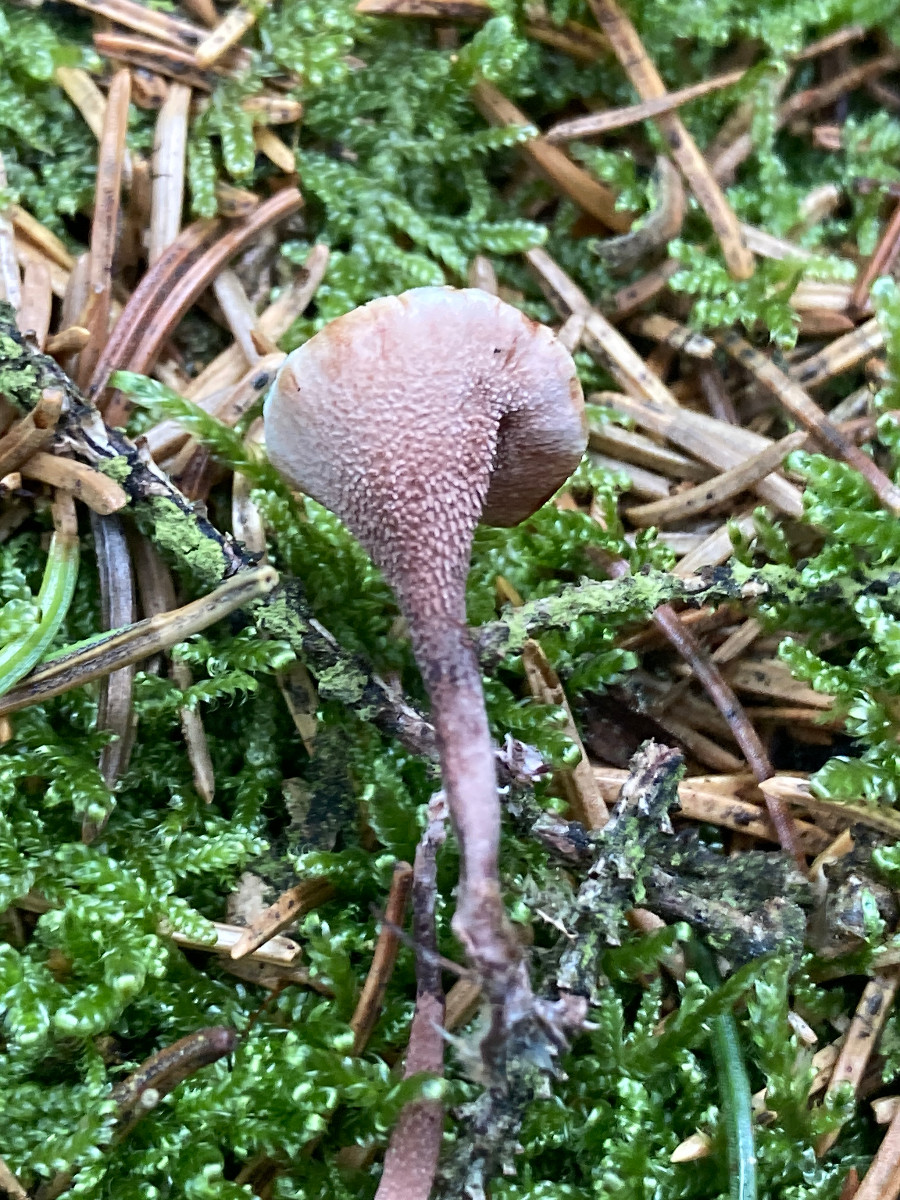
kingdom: Fungi
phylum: Basidiomycota
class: Agaricomycetes
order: Thelephorales
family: Bankeraceae
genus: Hydnellum
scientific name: Hydnellum gracilipes
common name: tyndstokket korkpigsvamp
